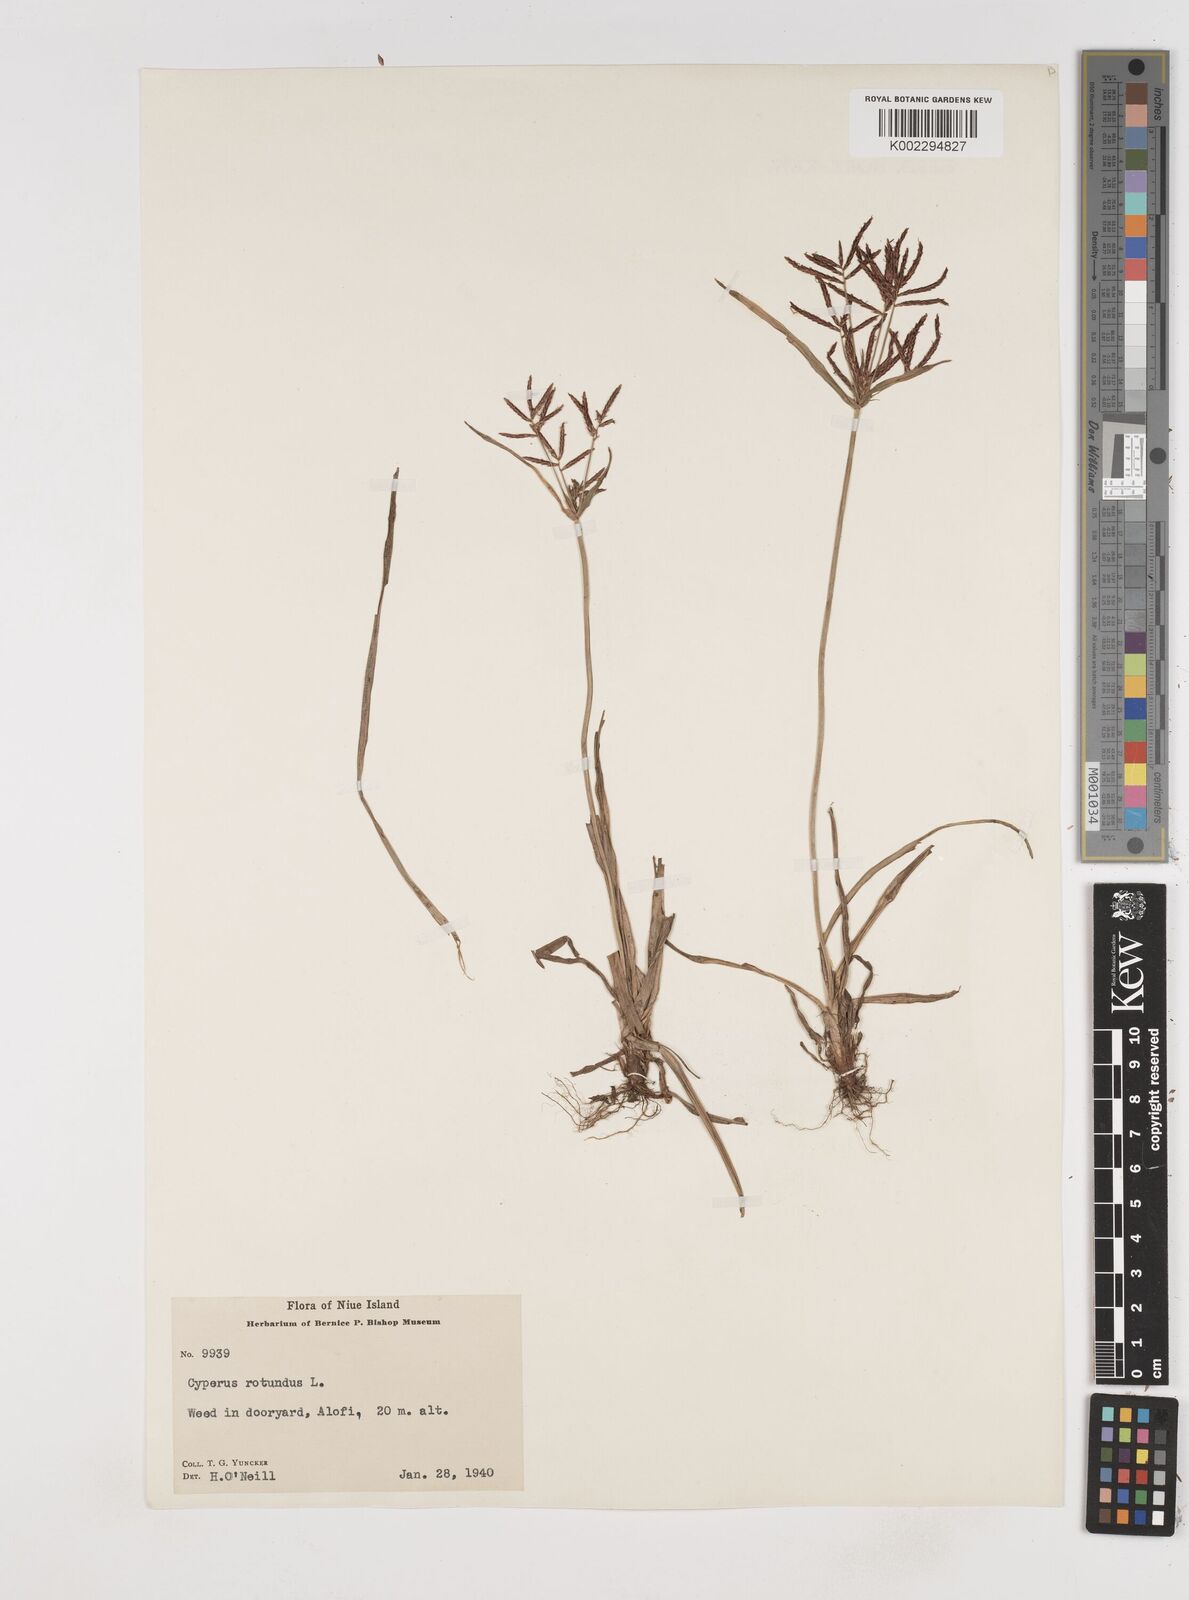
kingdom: Plantae
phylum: Tracheophyta
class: Liliopsida
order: Poales
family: Cyperaceae
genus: Cyperus
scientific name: Cyperus rotundus
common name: Nutgrass
